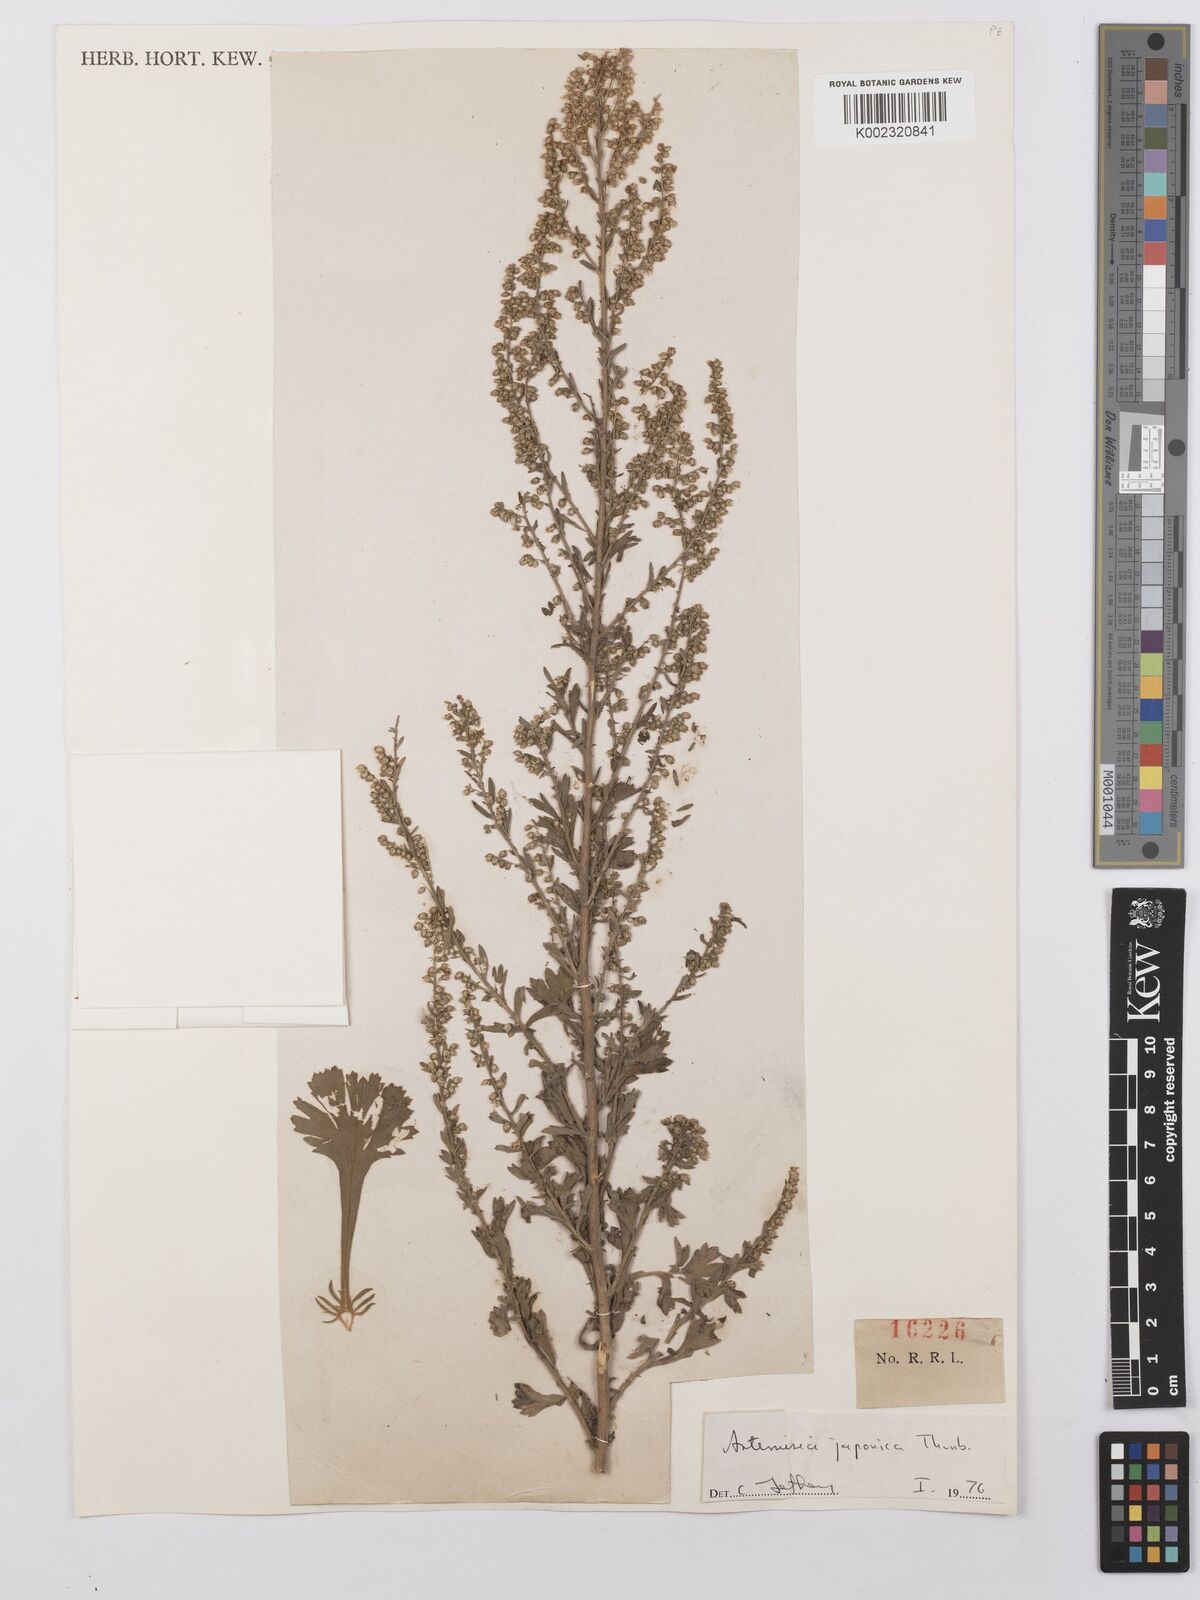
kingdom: Plantae
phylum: Tracheophyta
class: Magnoliopsida
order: Asterales
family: Asteraceae
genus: Artemisia
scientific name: Artemisia japonica
